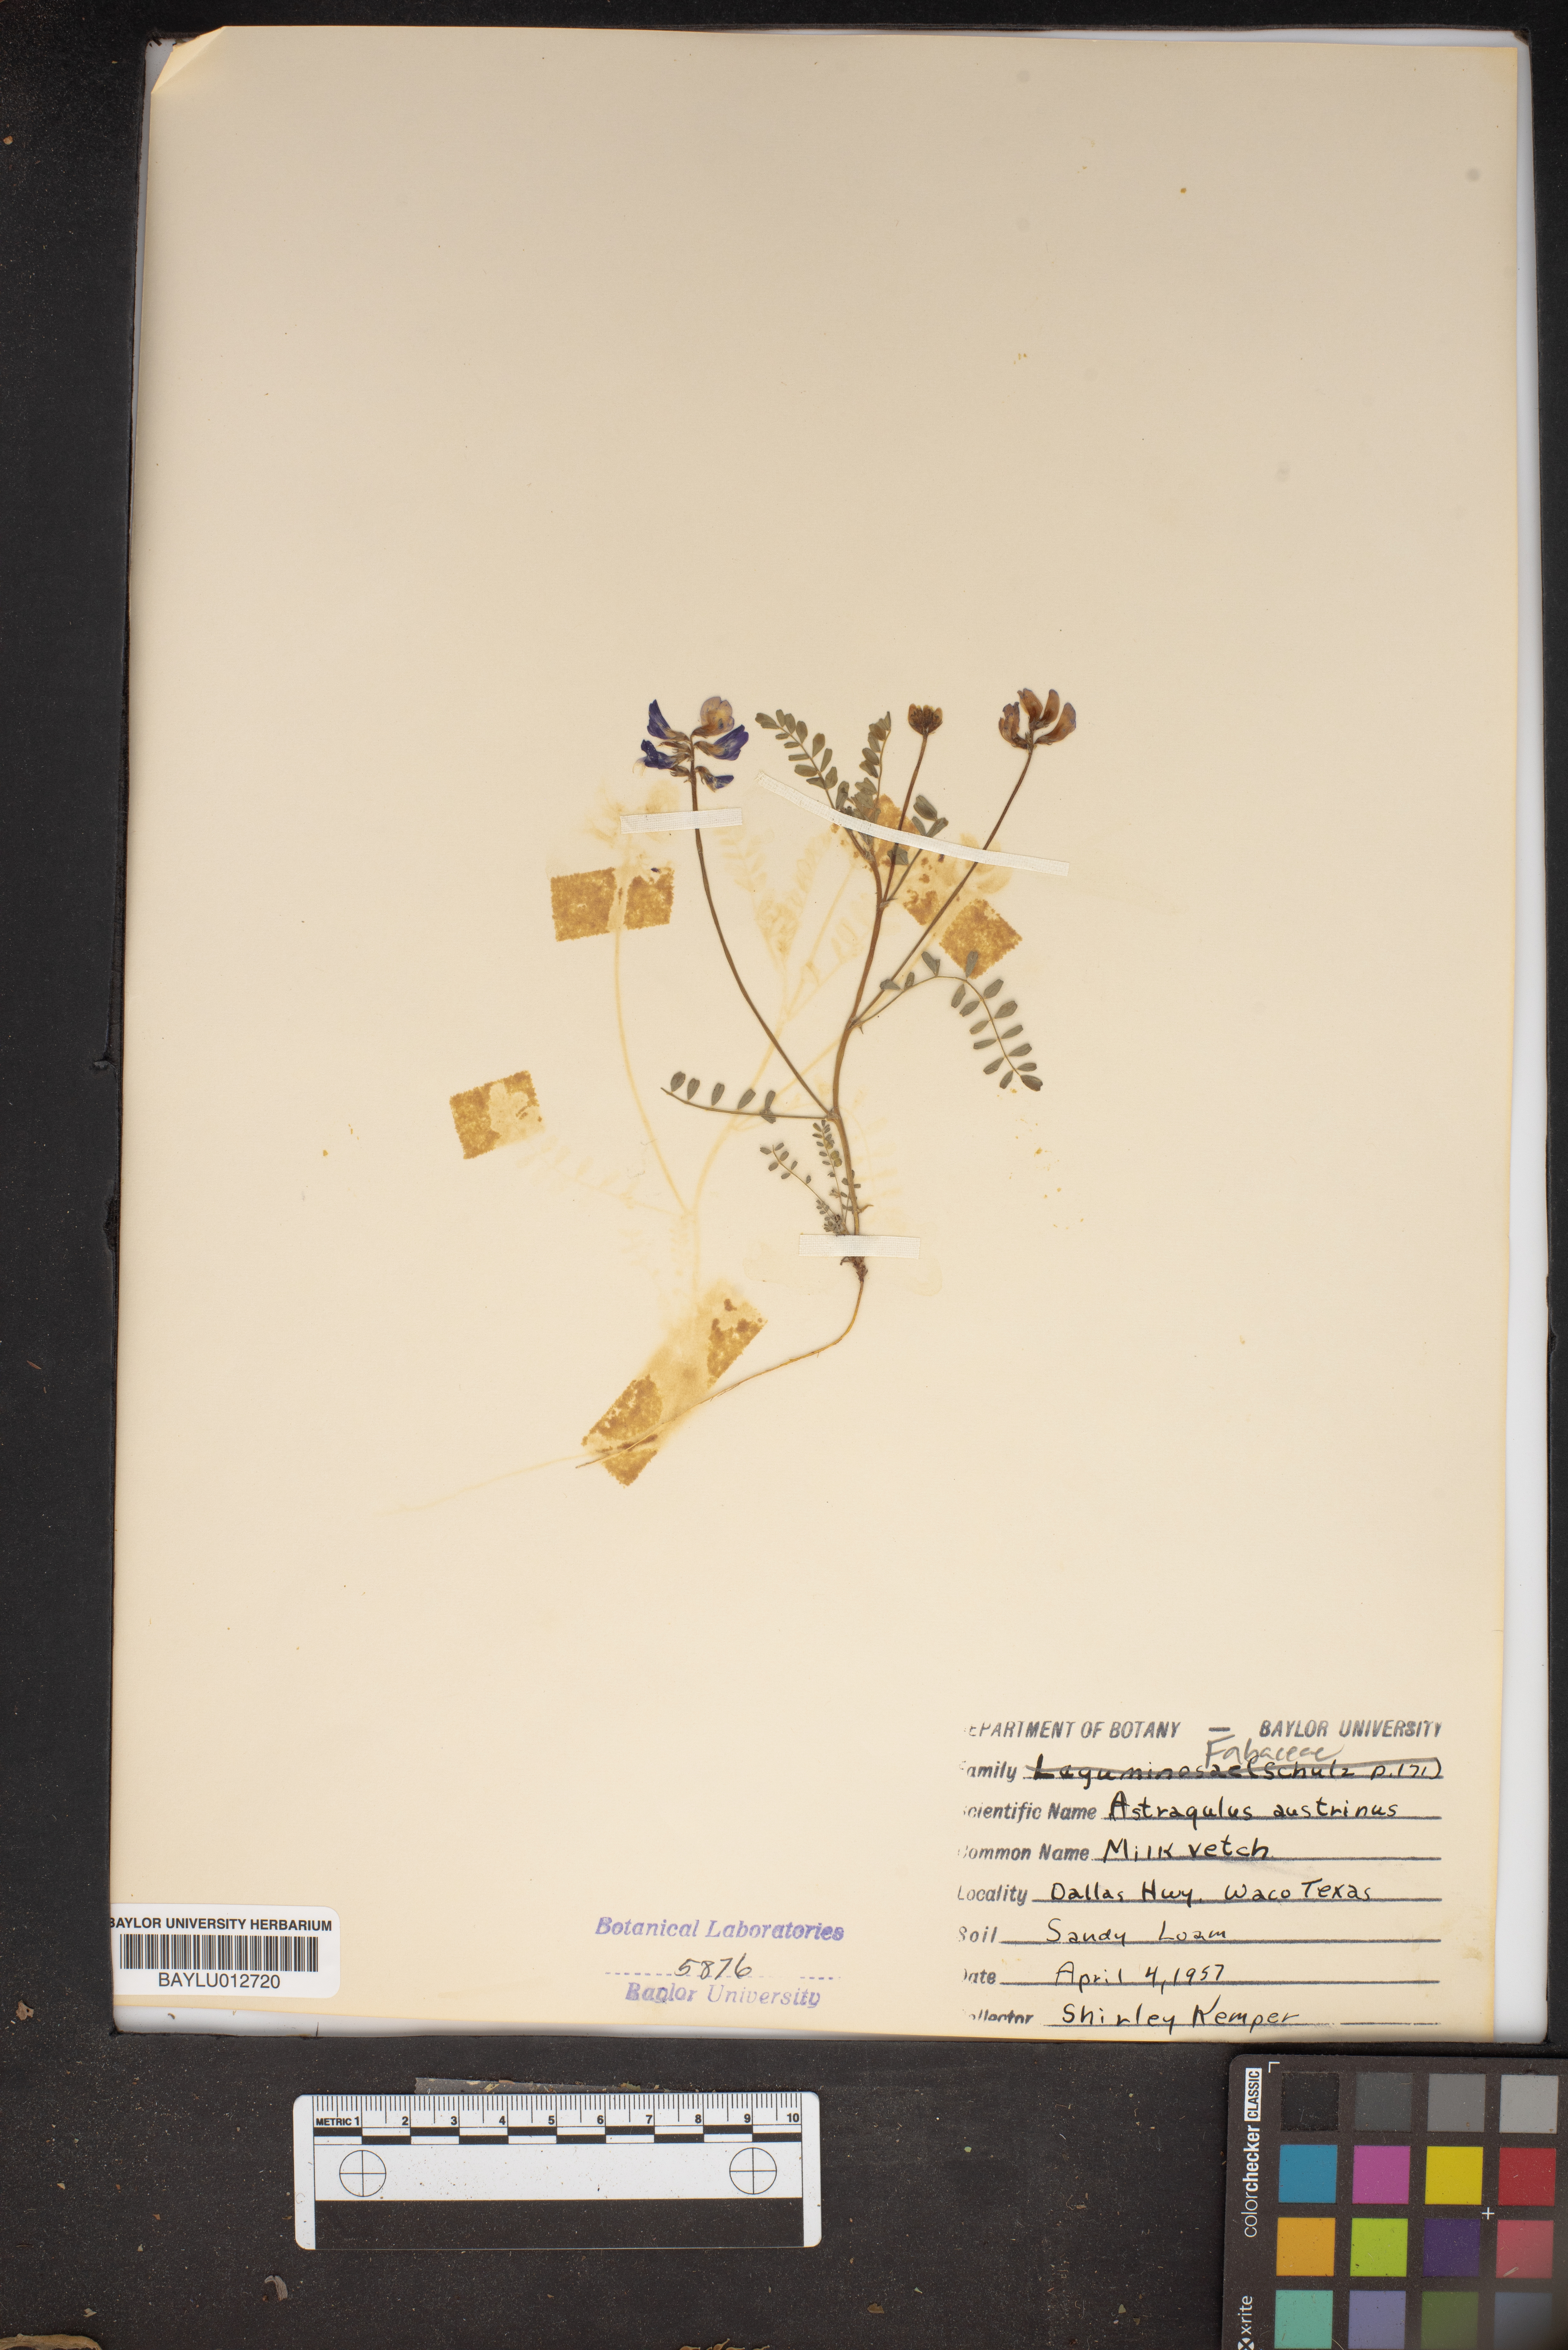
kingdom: Plantae
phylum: Tracheophyta
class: Magnoliopsida
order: Fabales
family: Fabaceae
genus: Astragalus
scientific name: Astragalus nuttallianus
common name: Smallflowered milkvetch
